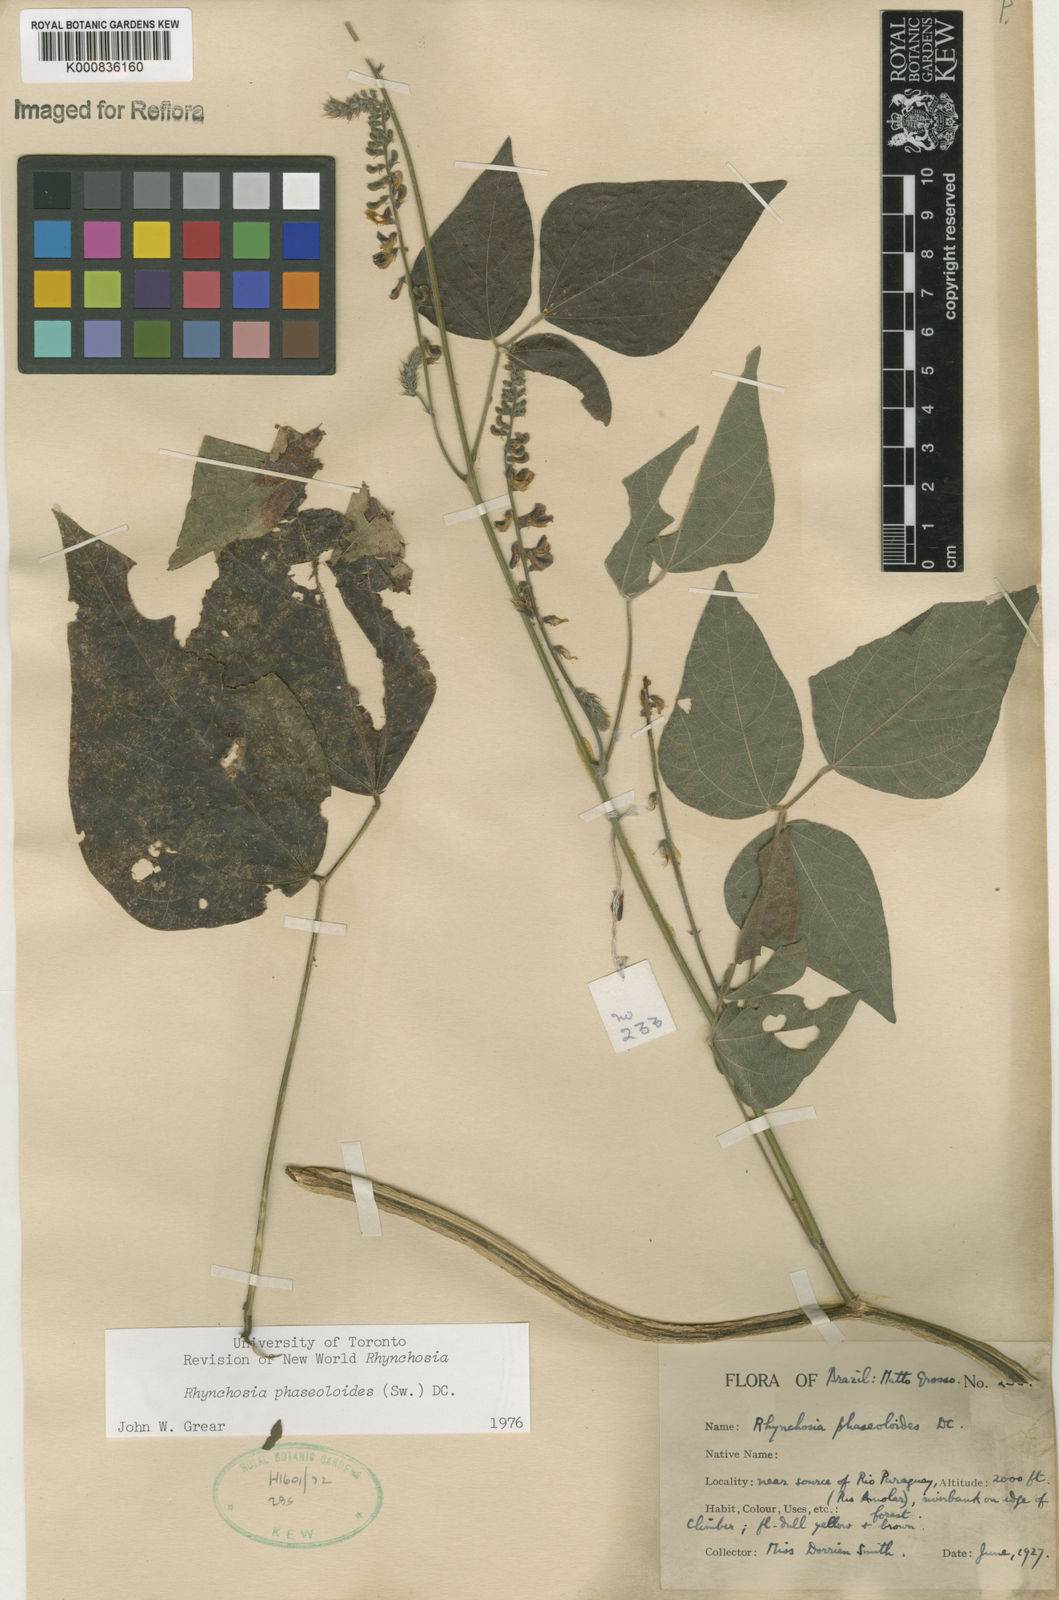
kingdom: Plantae
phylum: Tracheophyta
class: Magnoliopsida
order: Fabales
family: Fabaceae
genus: Rhynchosia
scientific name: Rhynchosia phaseoloides
